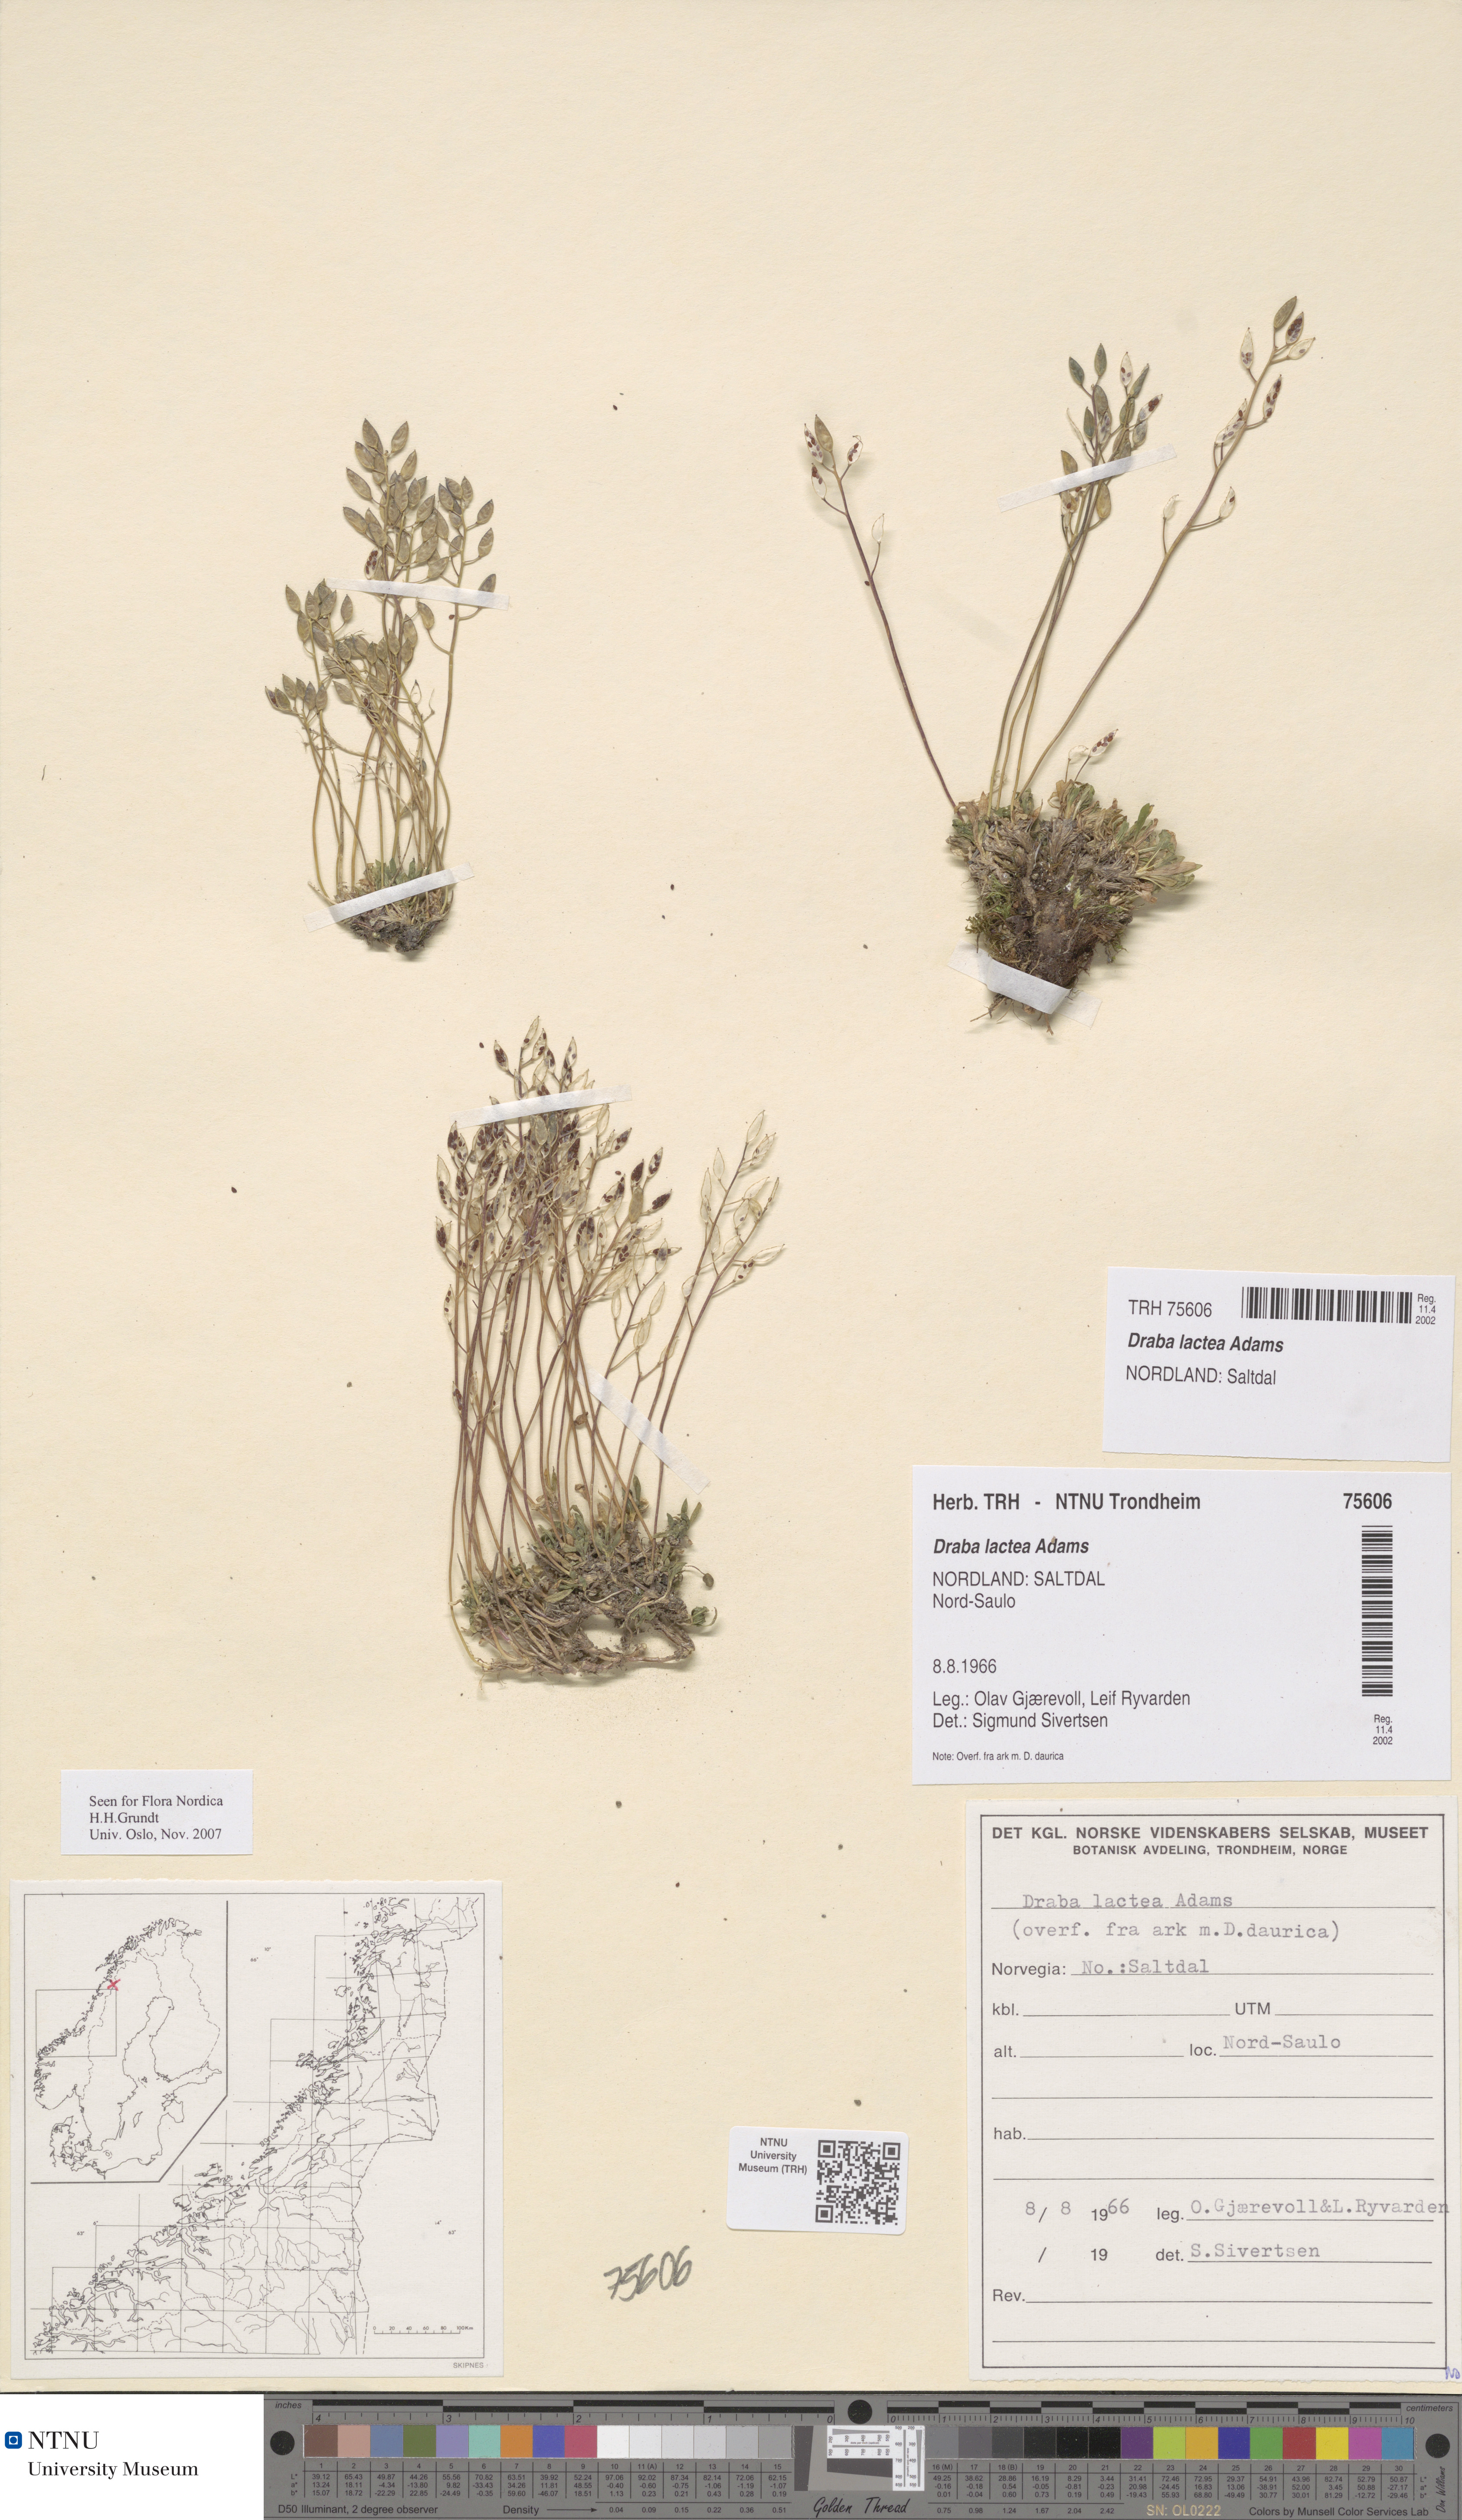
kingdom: Plantae
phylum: Tracheophyta
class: Magnoliopsida
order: Brassicales
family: Brassicaceae
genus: Draba
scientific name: Draba lactea
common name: Milky draba
